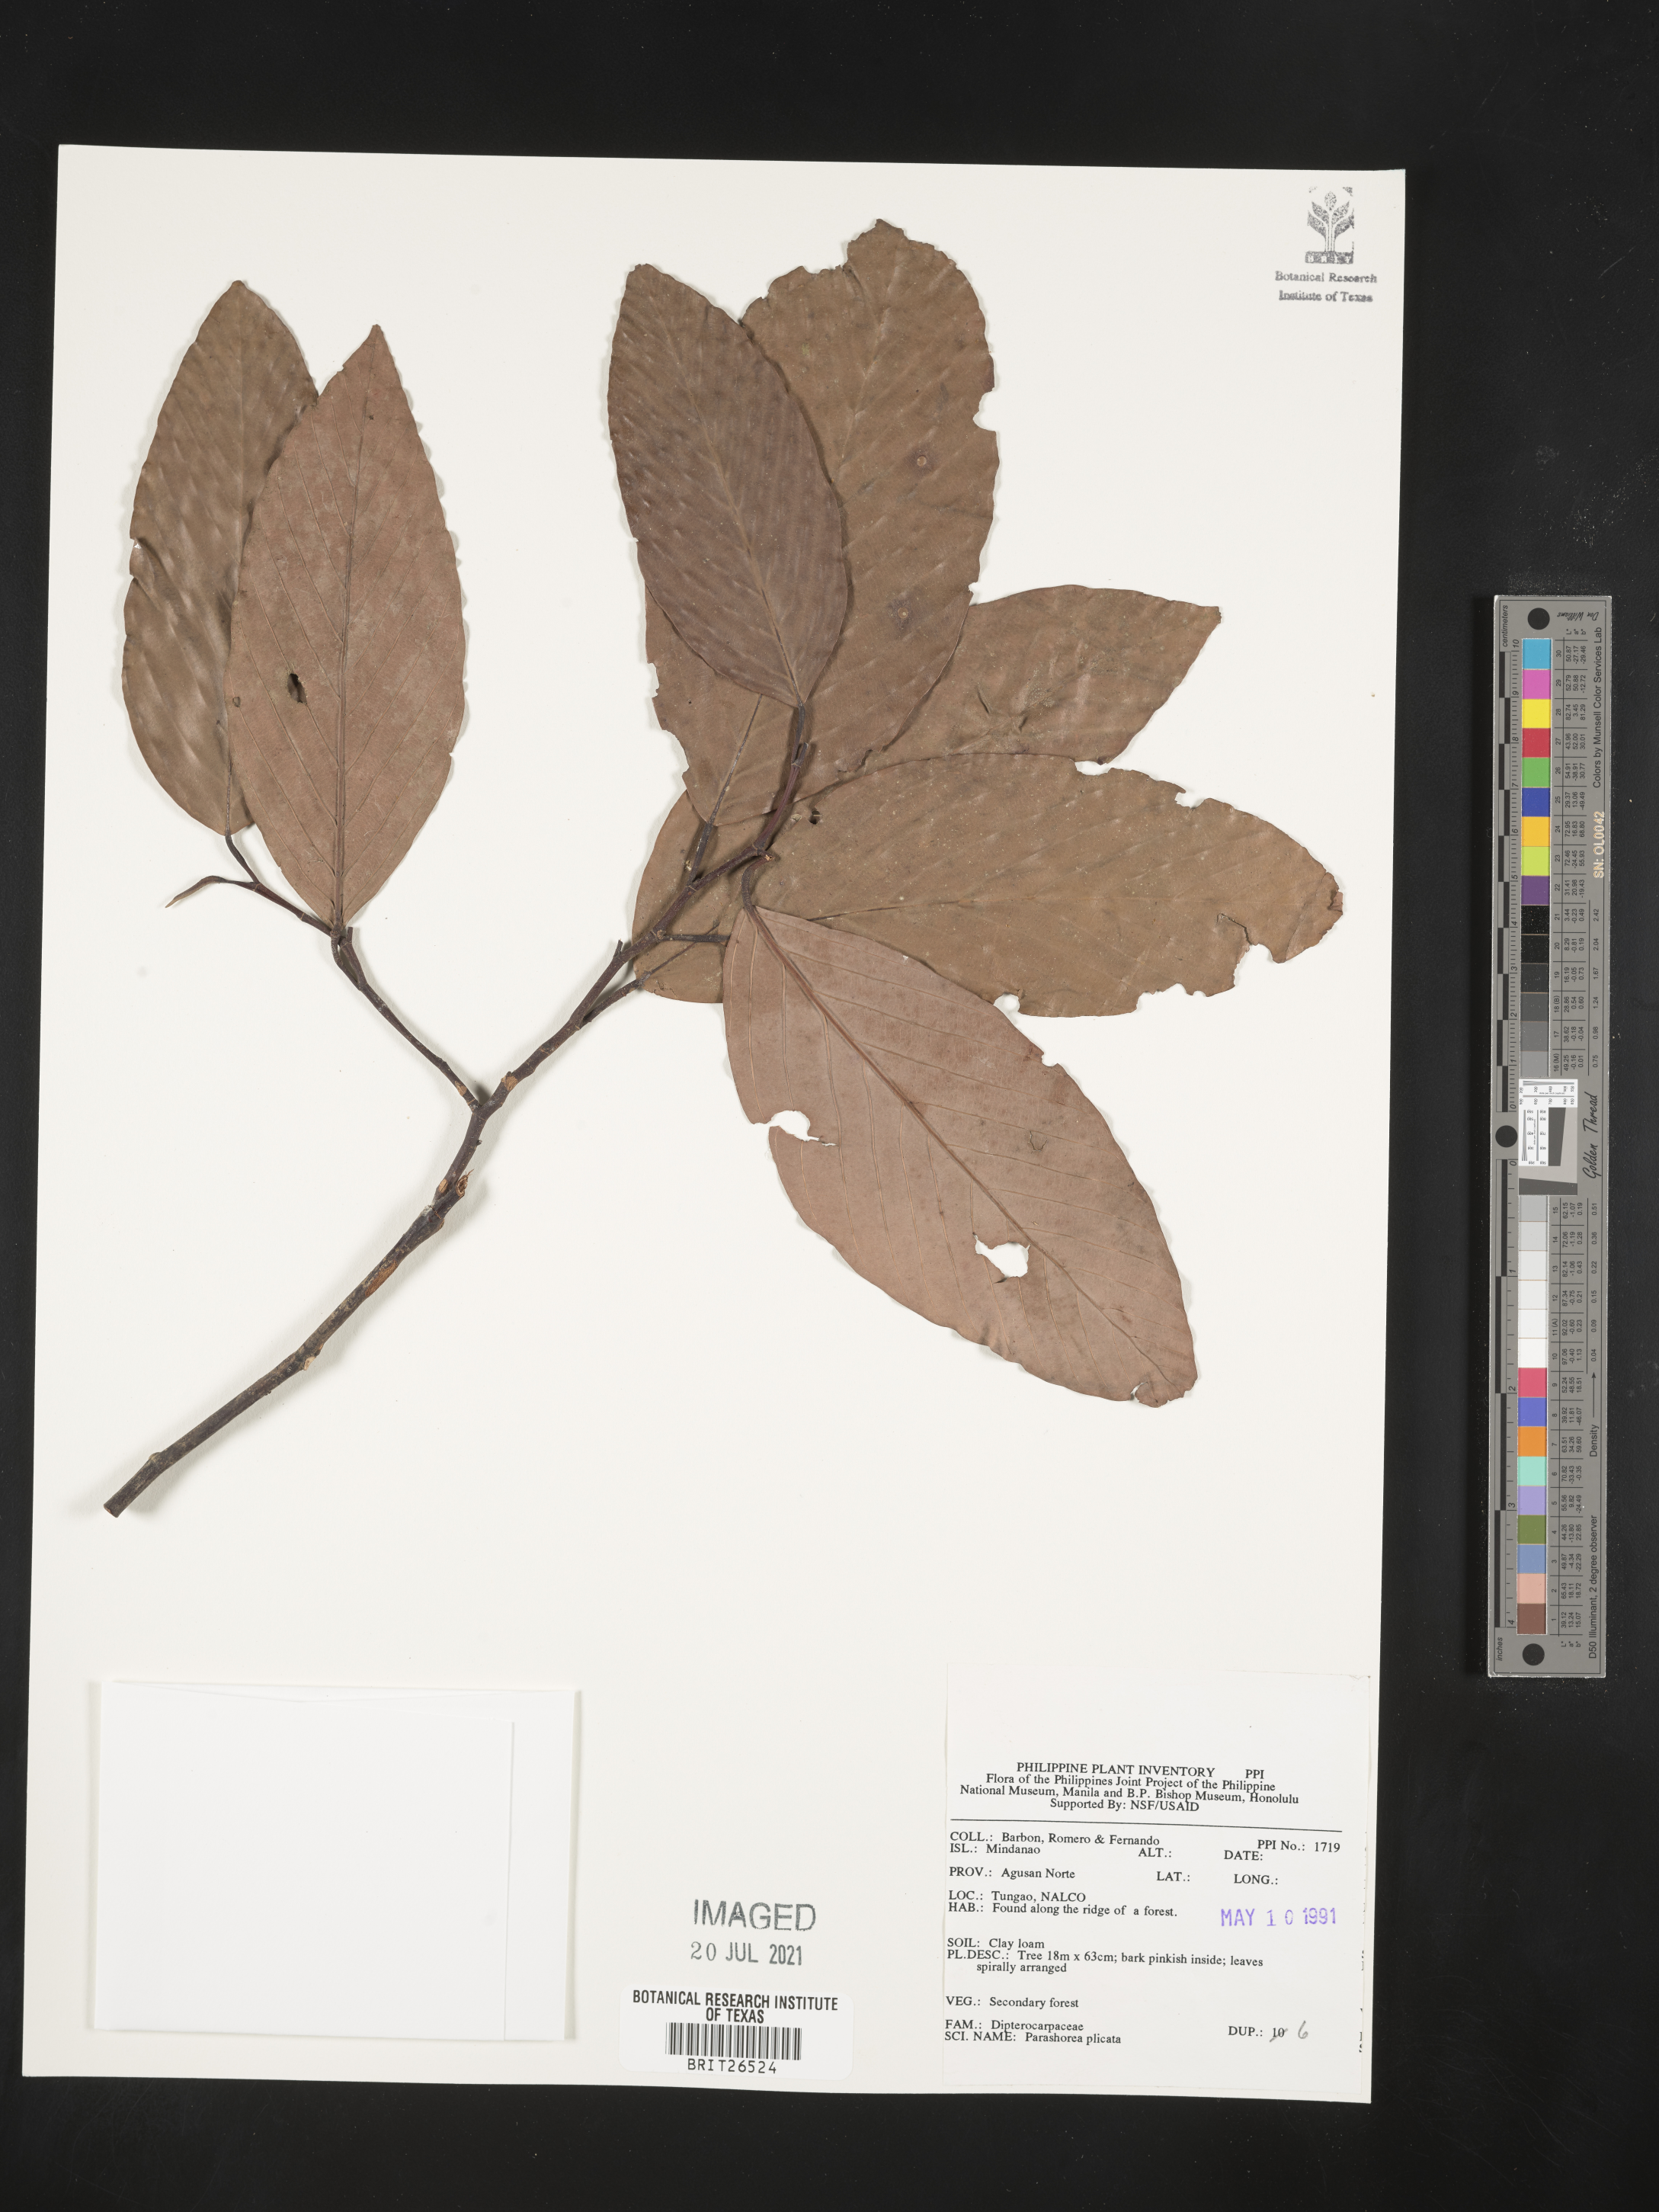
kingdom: Plantae
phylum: Tracheophyta
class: Magnoliopsida
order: Malvales
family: Dipterocarpaceae
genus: Parashorea
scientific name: Parashorea malaanonan
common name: White lauan
